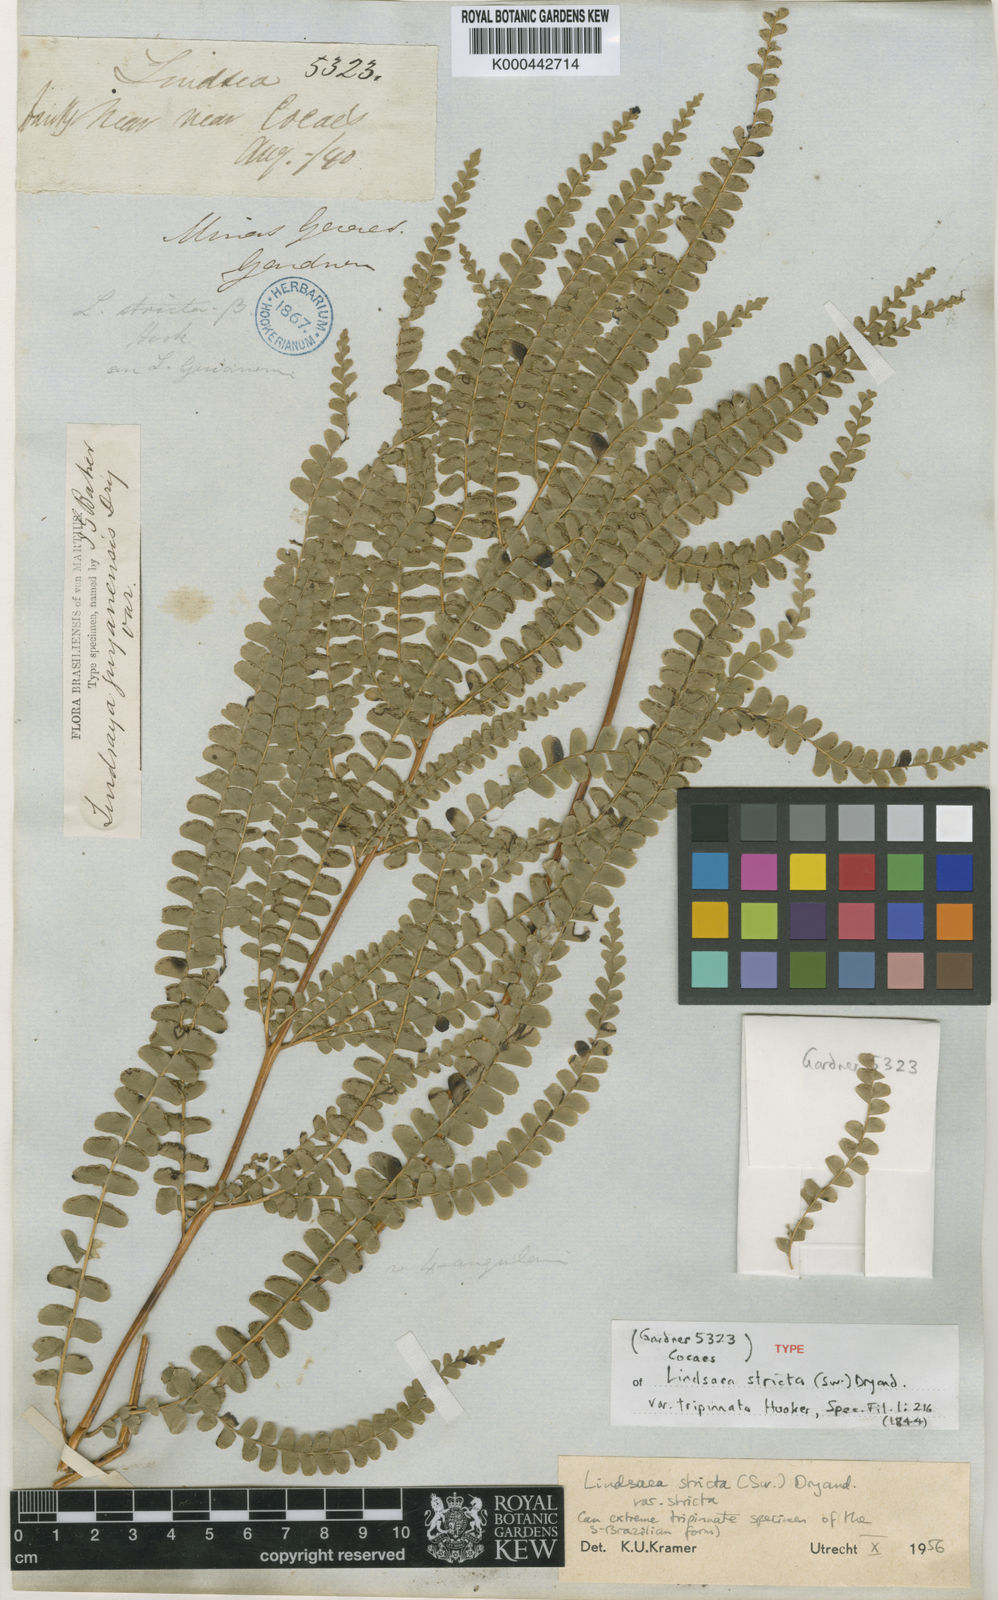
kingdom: Plantae
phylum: Tracheophyta
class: Polypodiopsida
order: Polypodiales
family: Lindsaeaceae
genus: Lindsaea
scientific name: Lindsaea stricta
